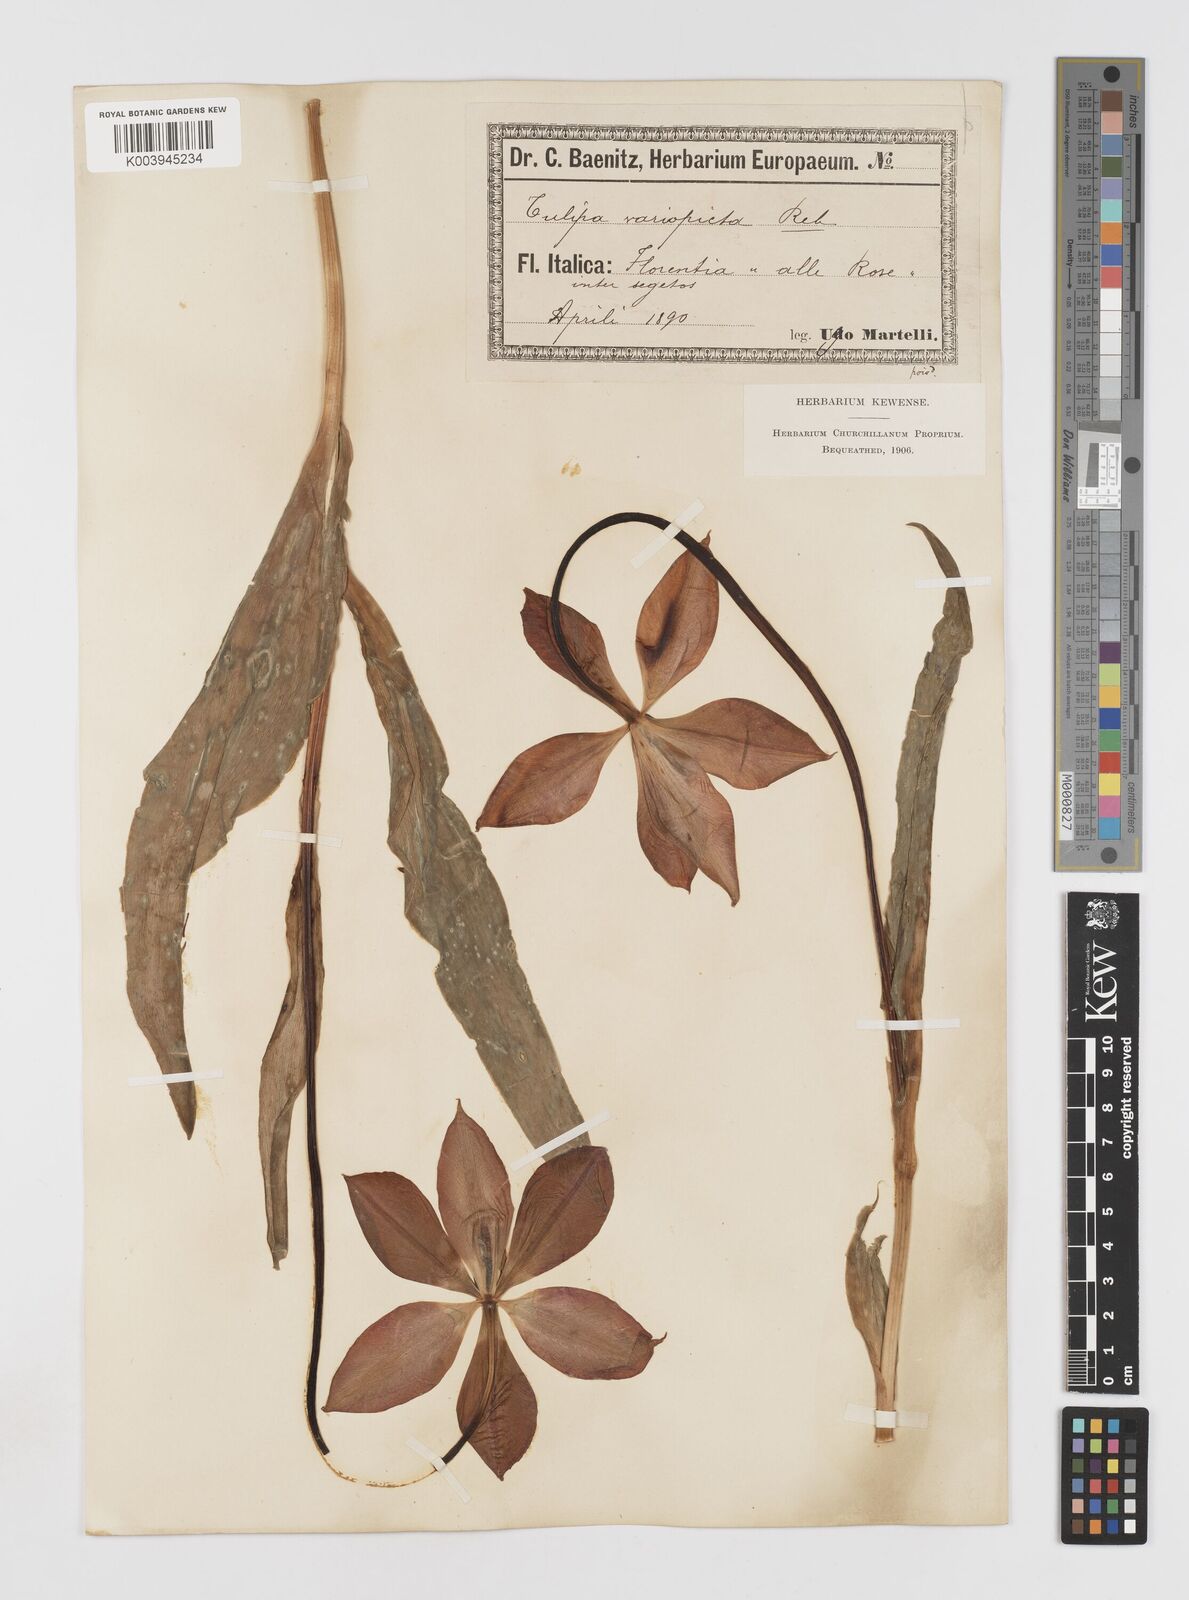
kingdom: Plantae
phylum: Tracheophyta
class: Liliopsida
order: Liliales
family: Liliaceae
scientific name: Liliaceae
